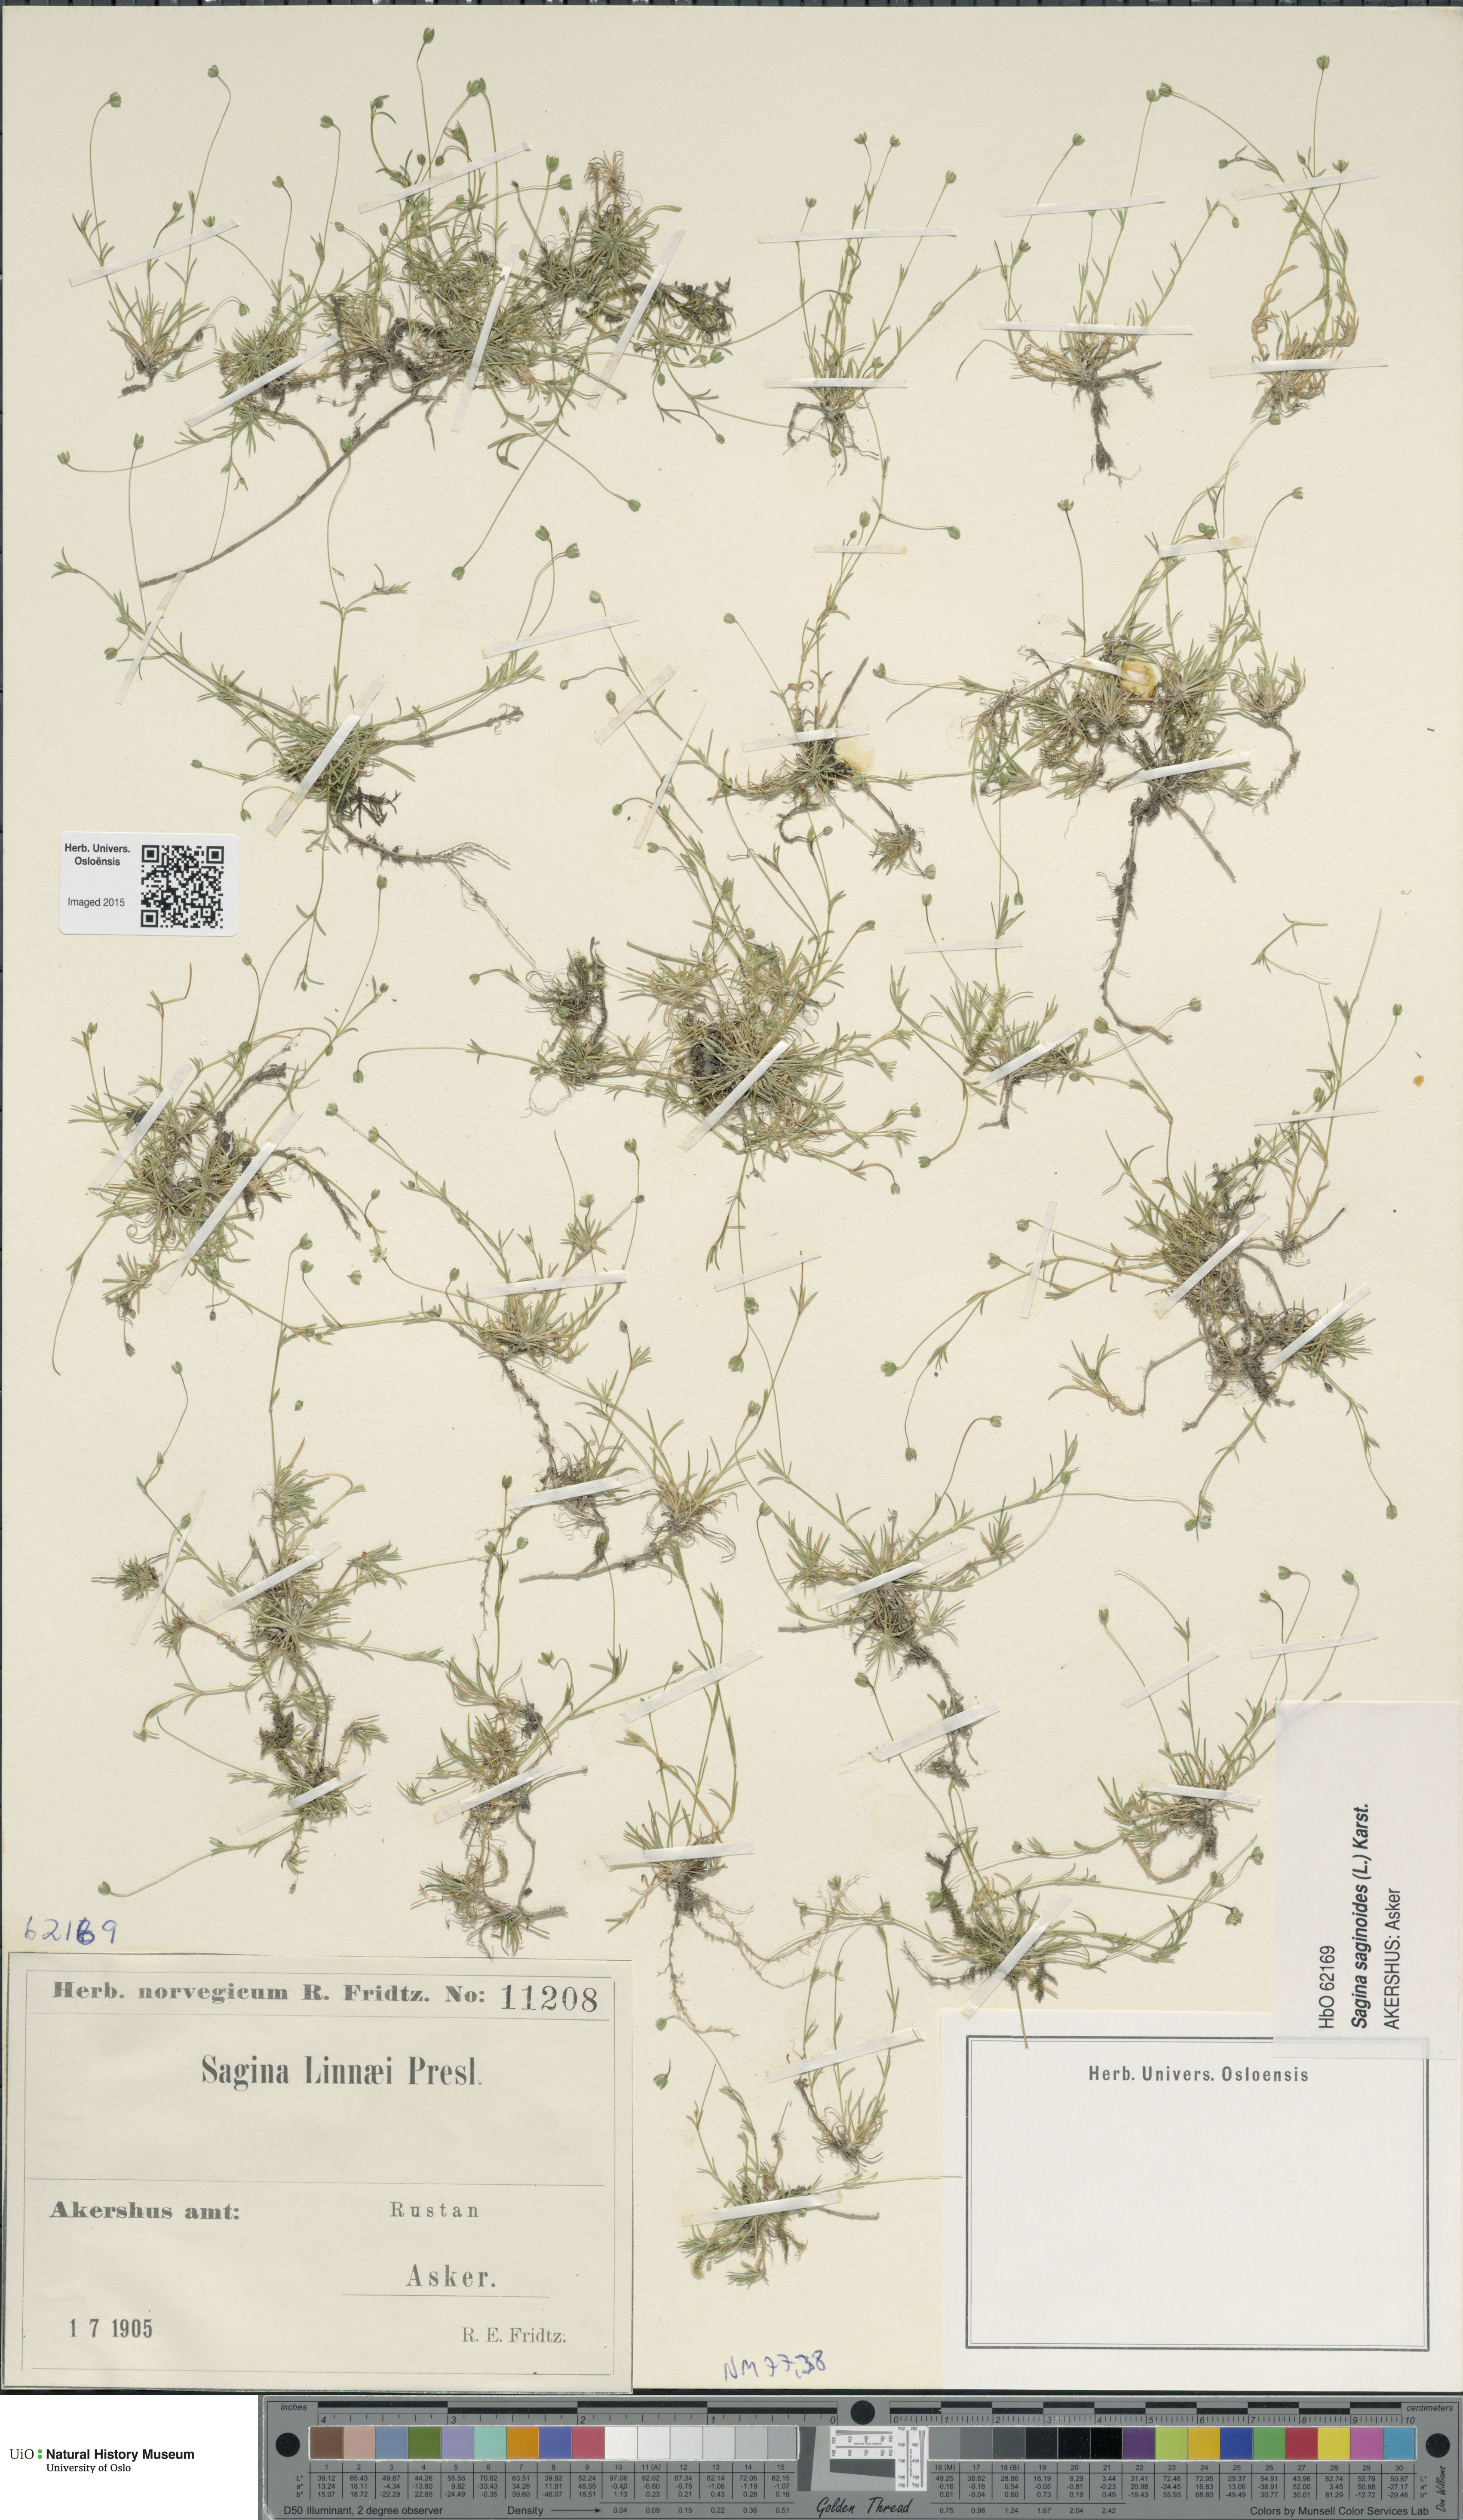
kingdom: Plantae
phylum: Tracheophyta
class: Magnoliopsida
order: Caryophyllales
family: Caryophyllaceae
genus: Sagina
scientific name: Sagina saginoides
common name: Alpine pearlwort
